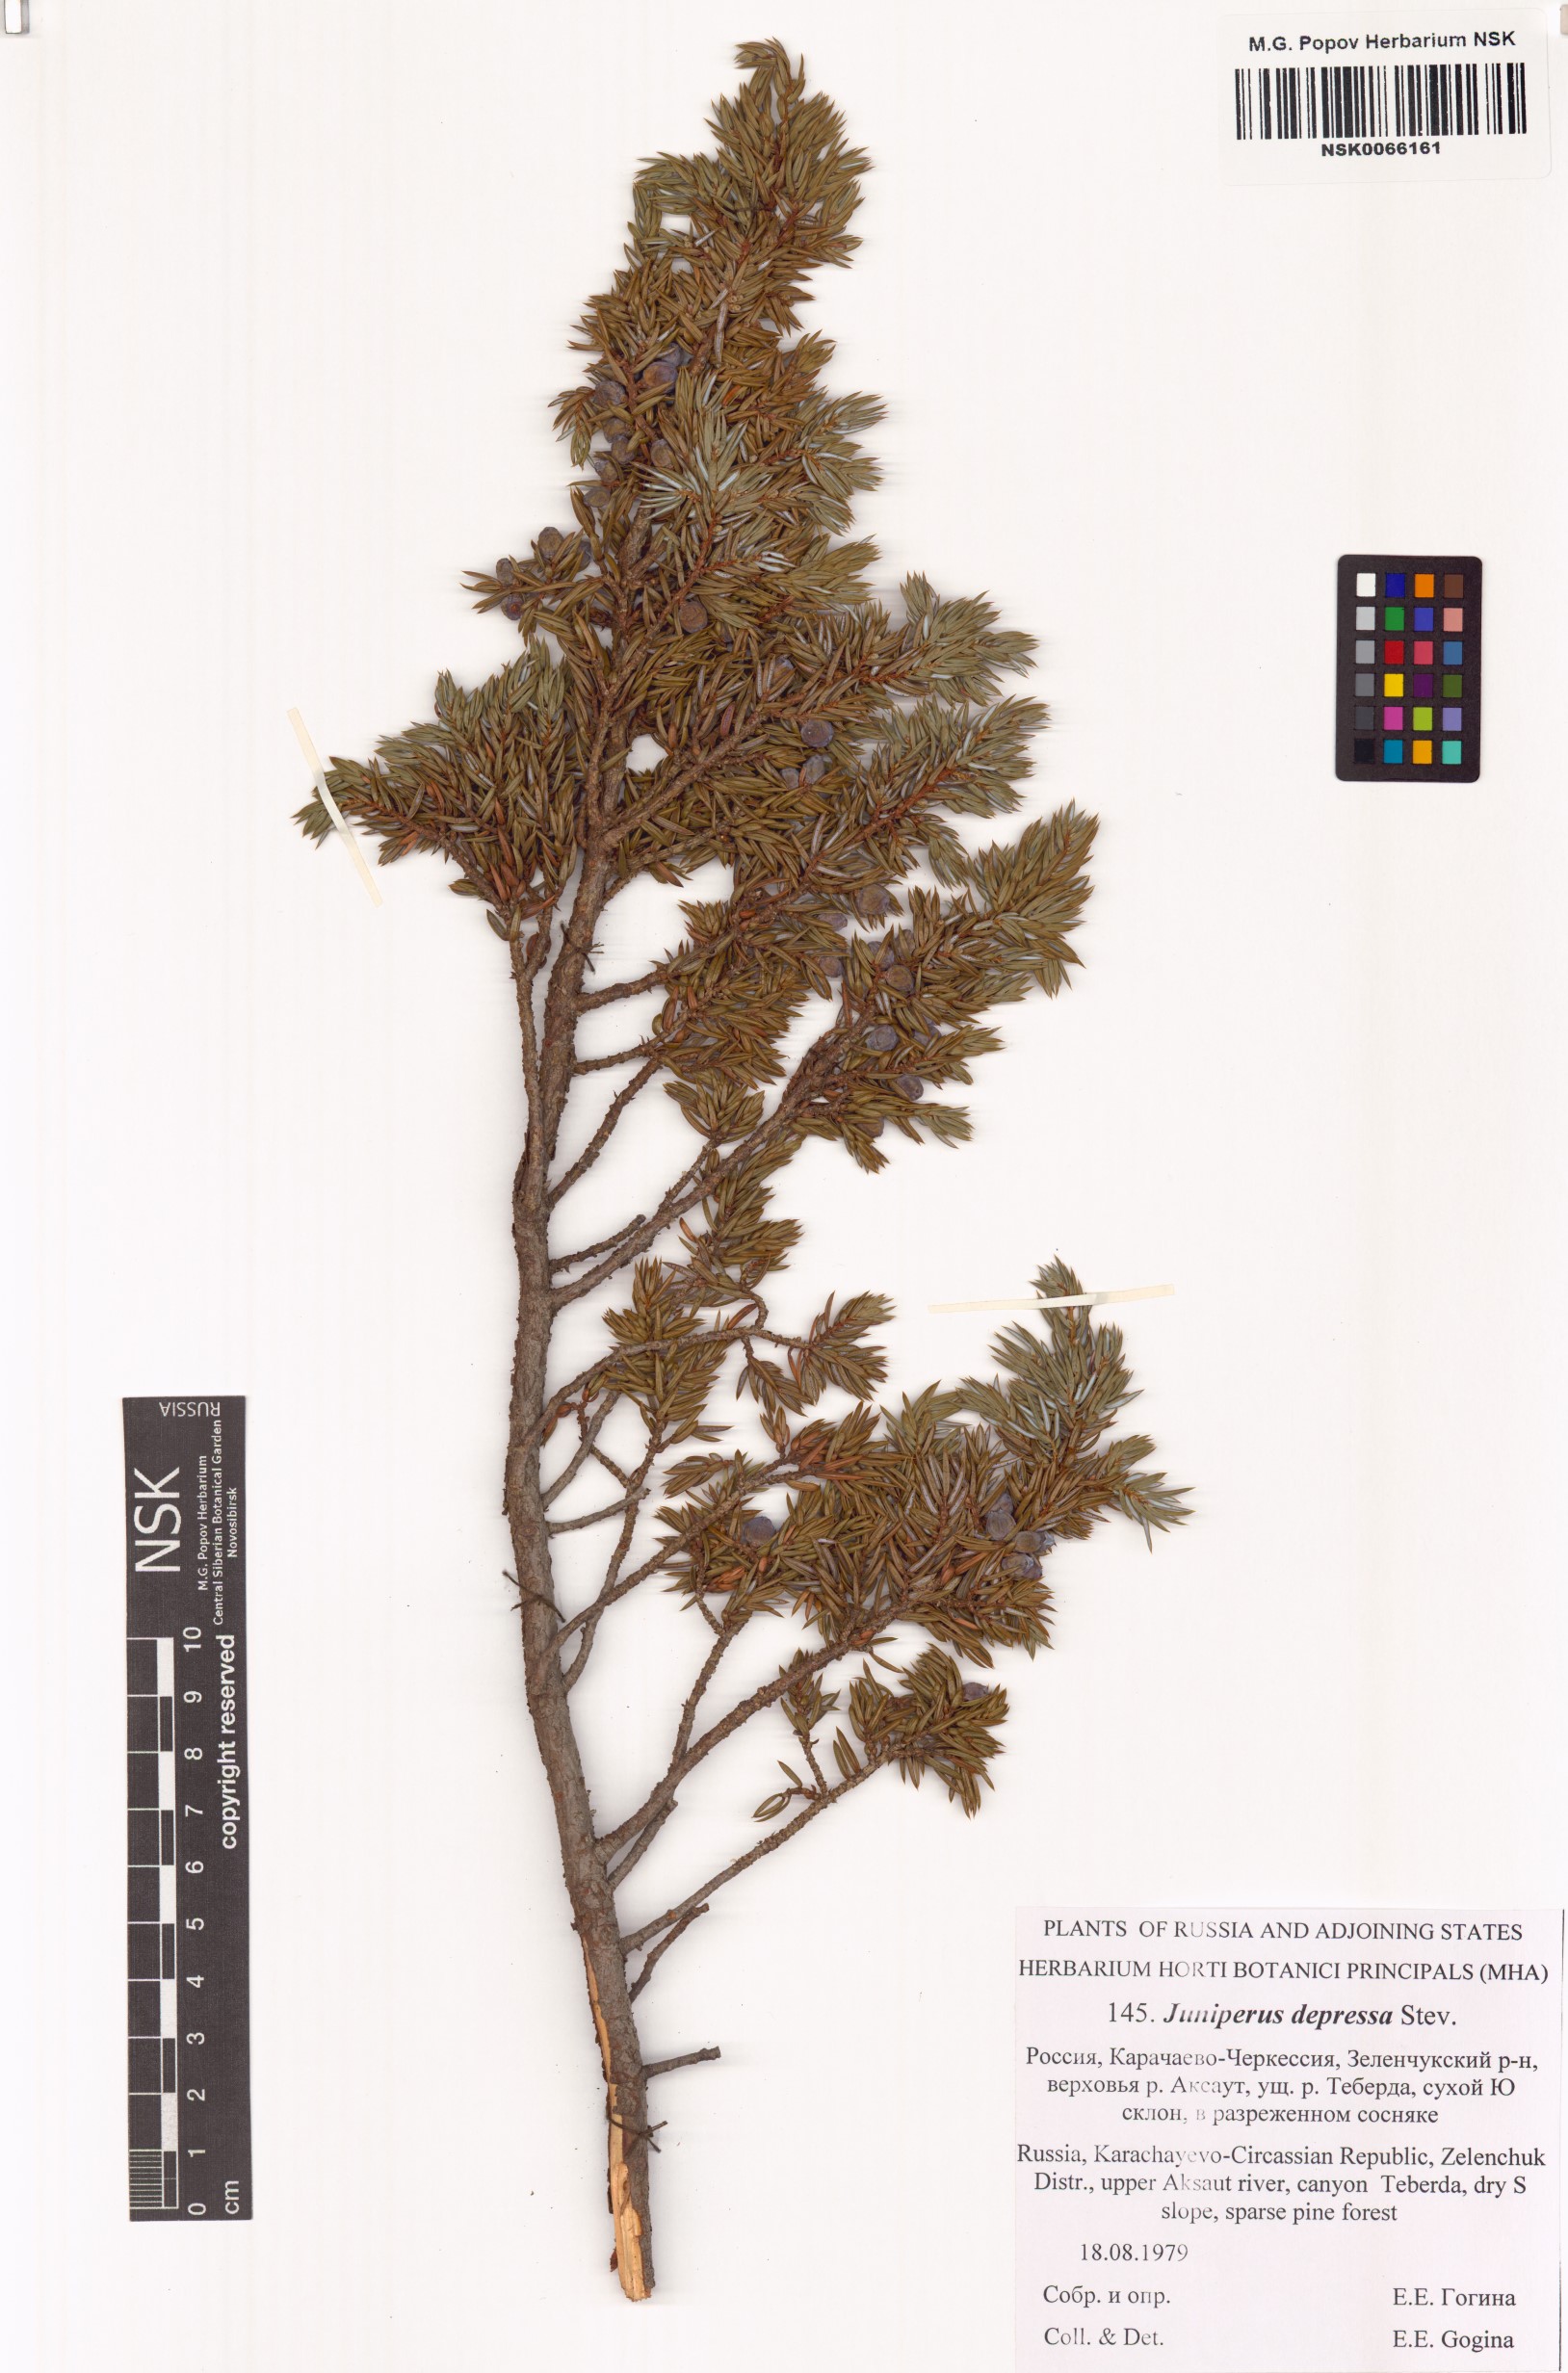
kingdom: Plantae
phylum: Tracheophyta
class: Pinopsida
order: Pinales
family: Cupressaceae
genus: Juniperus
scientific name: Juniperus communis
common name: Common juniper
